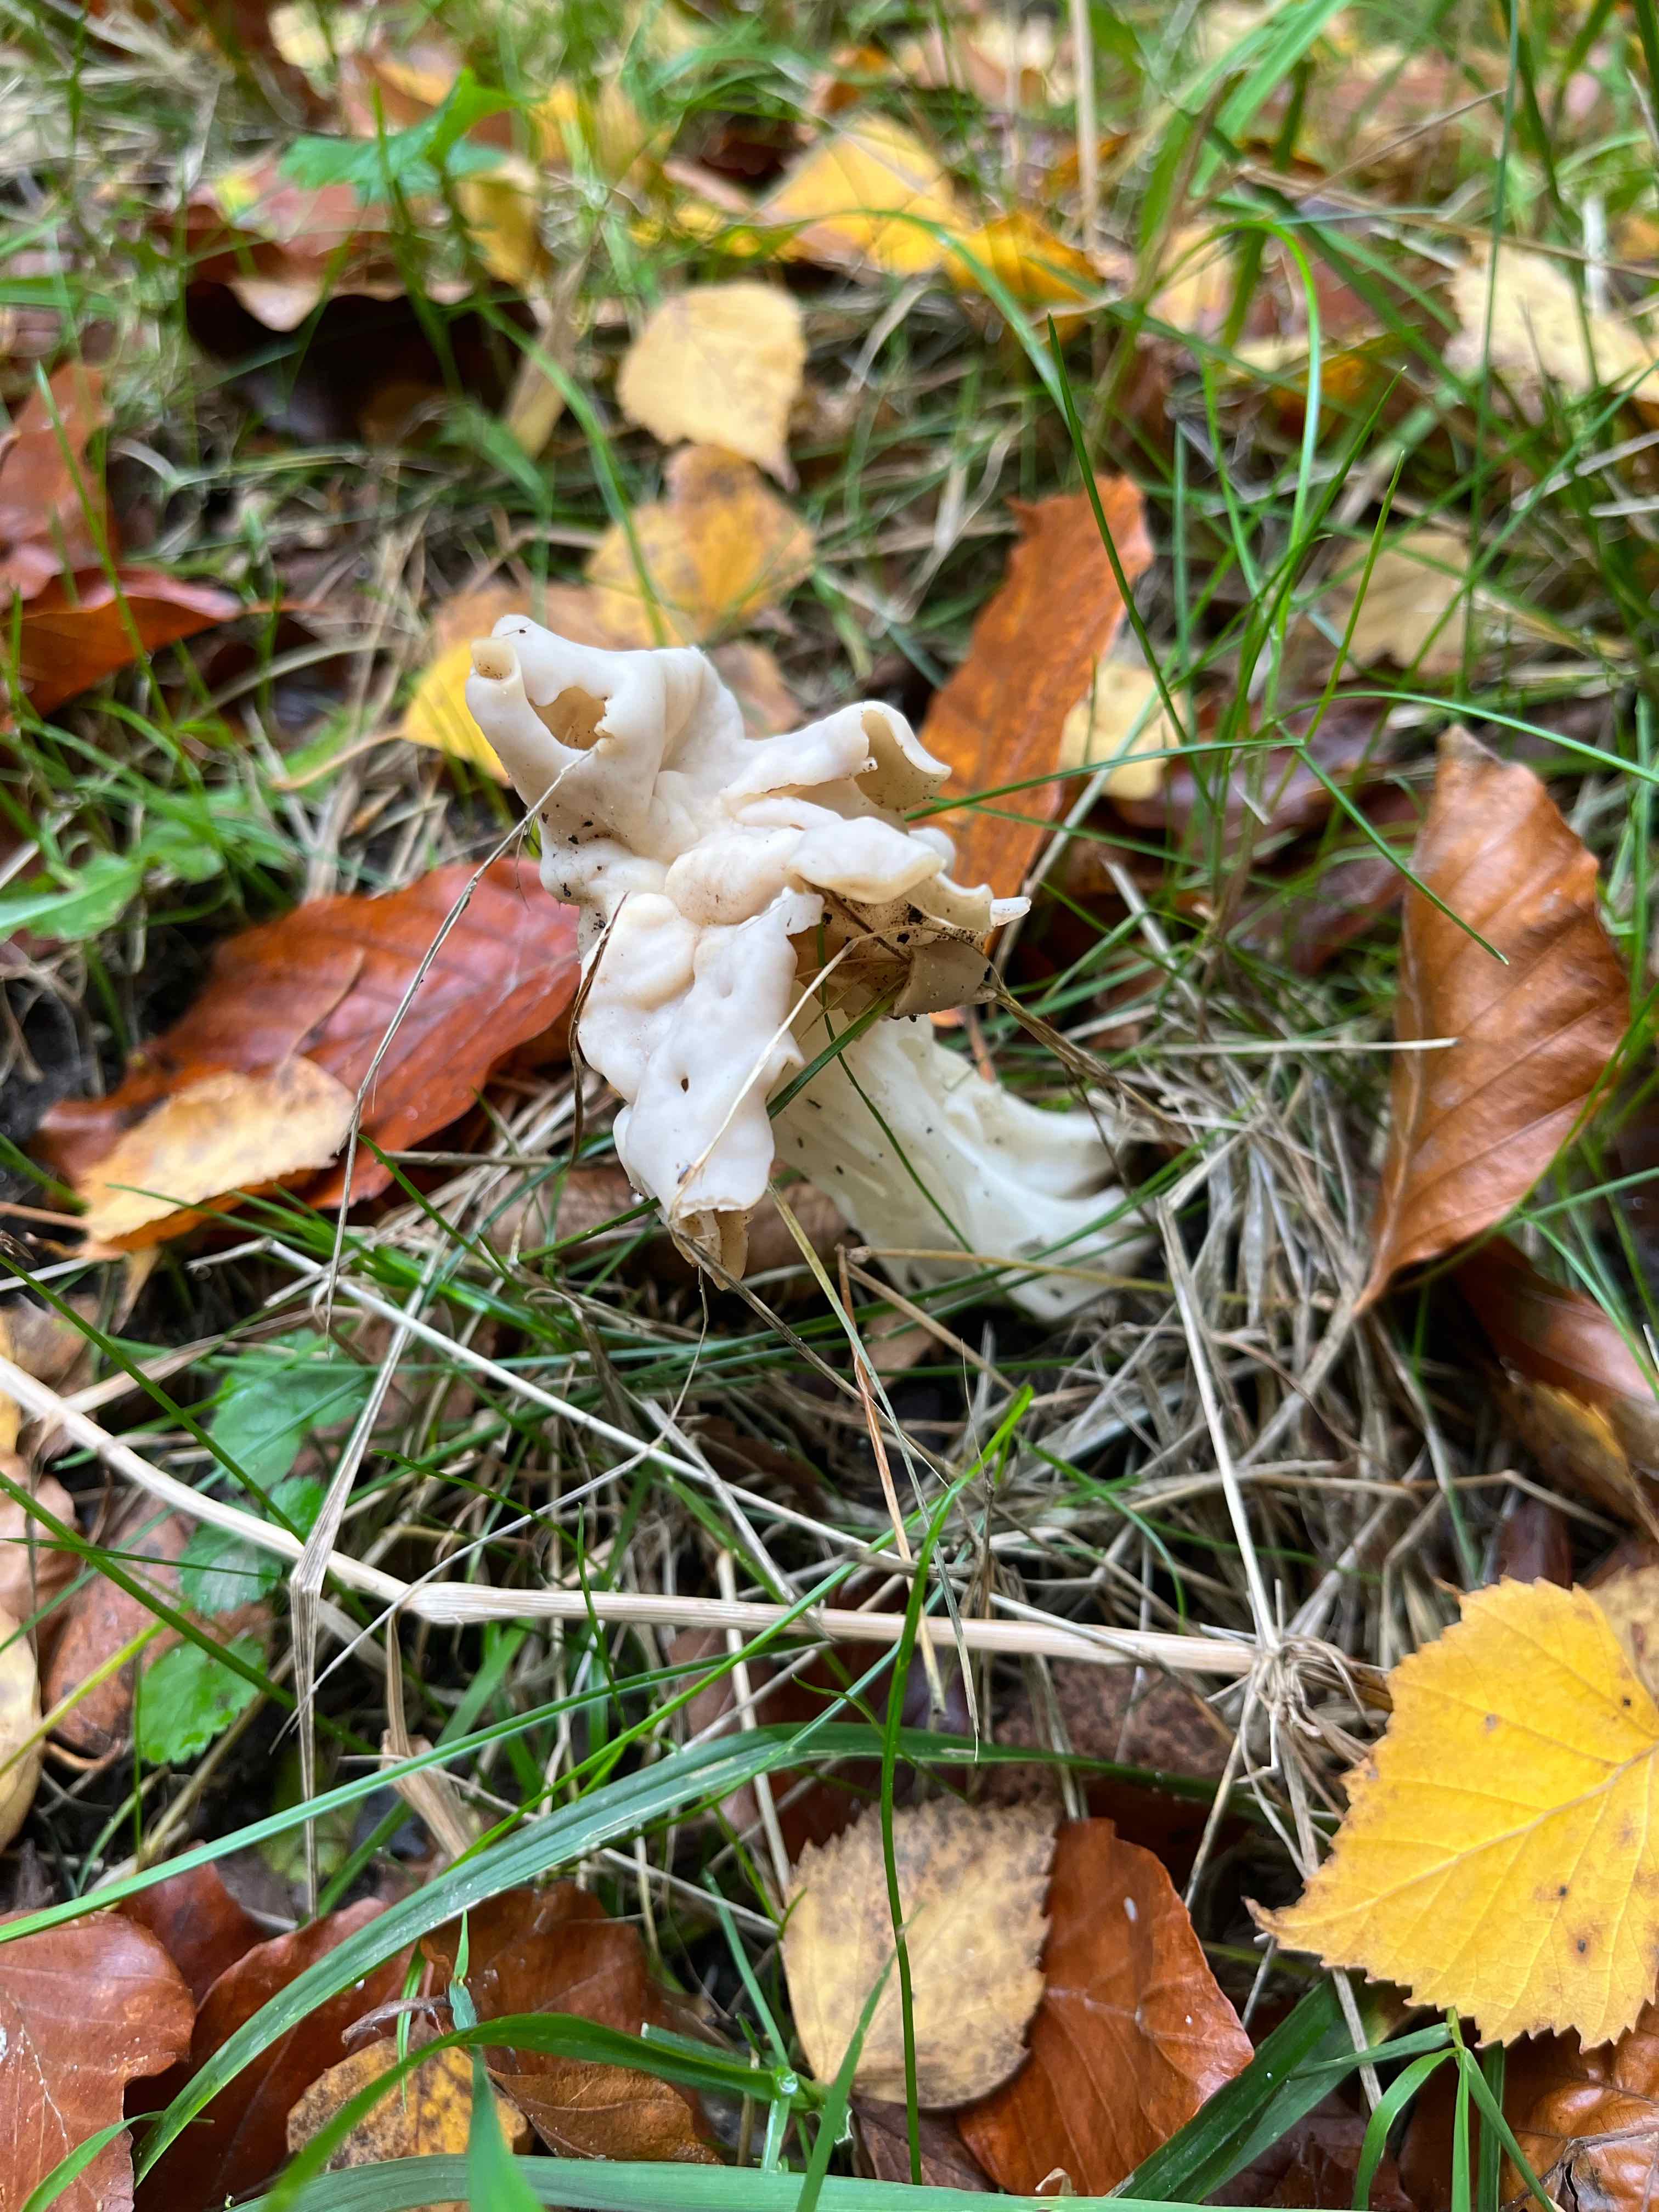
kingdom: Fungi
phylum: Ascomycota
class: Pezizomycetes
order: Pezizales
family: Helvellaceae
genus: Helvella
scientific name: Helvella crispa
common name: kruset foldhat
